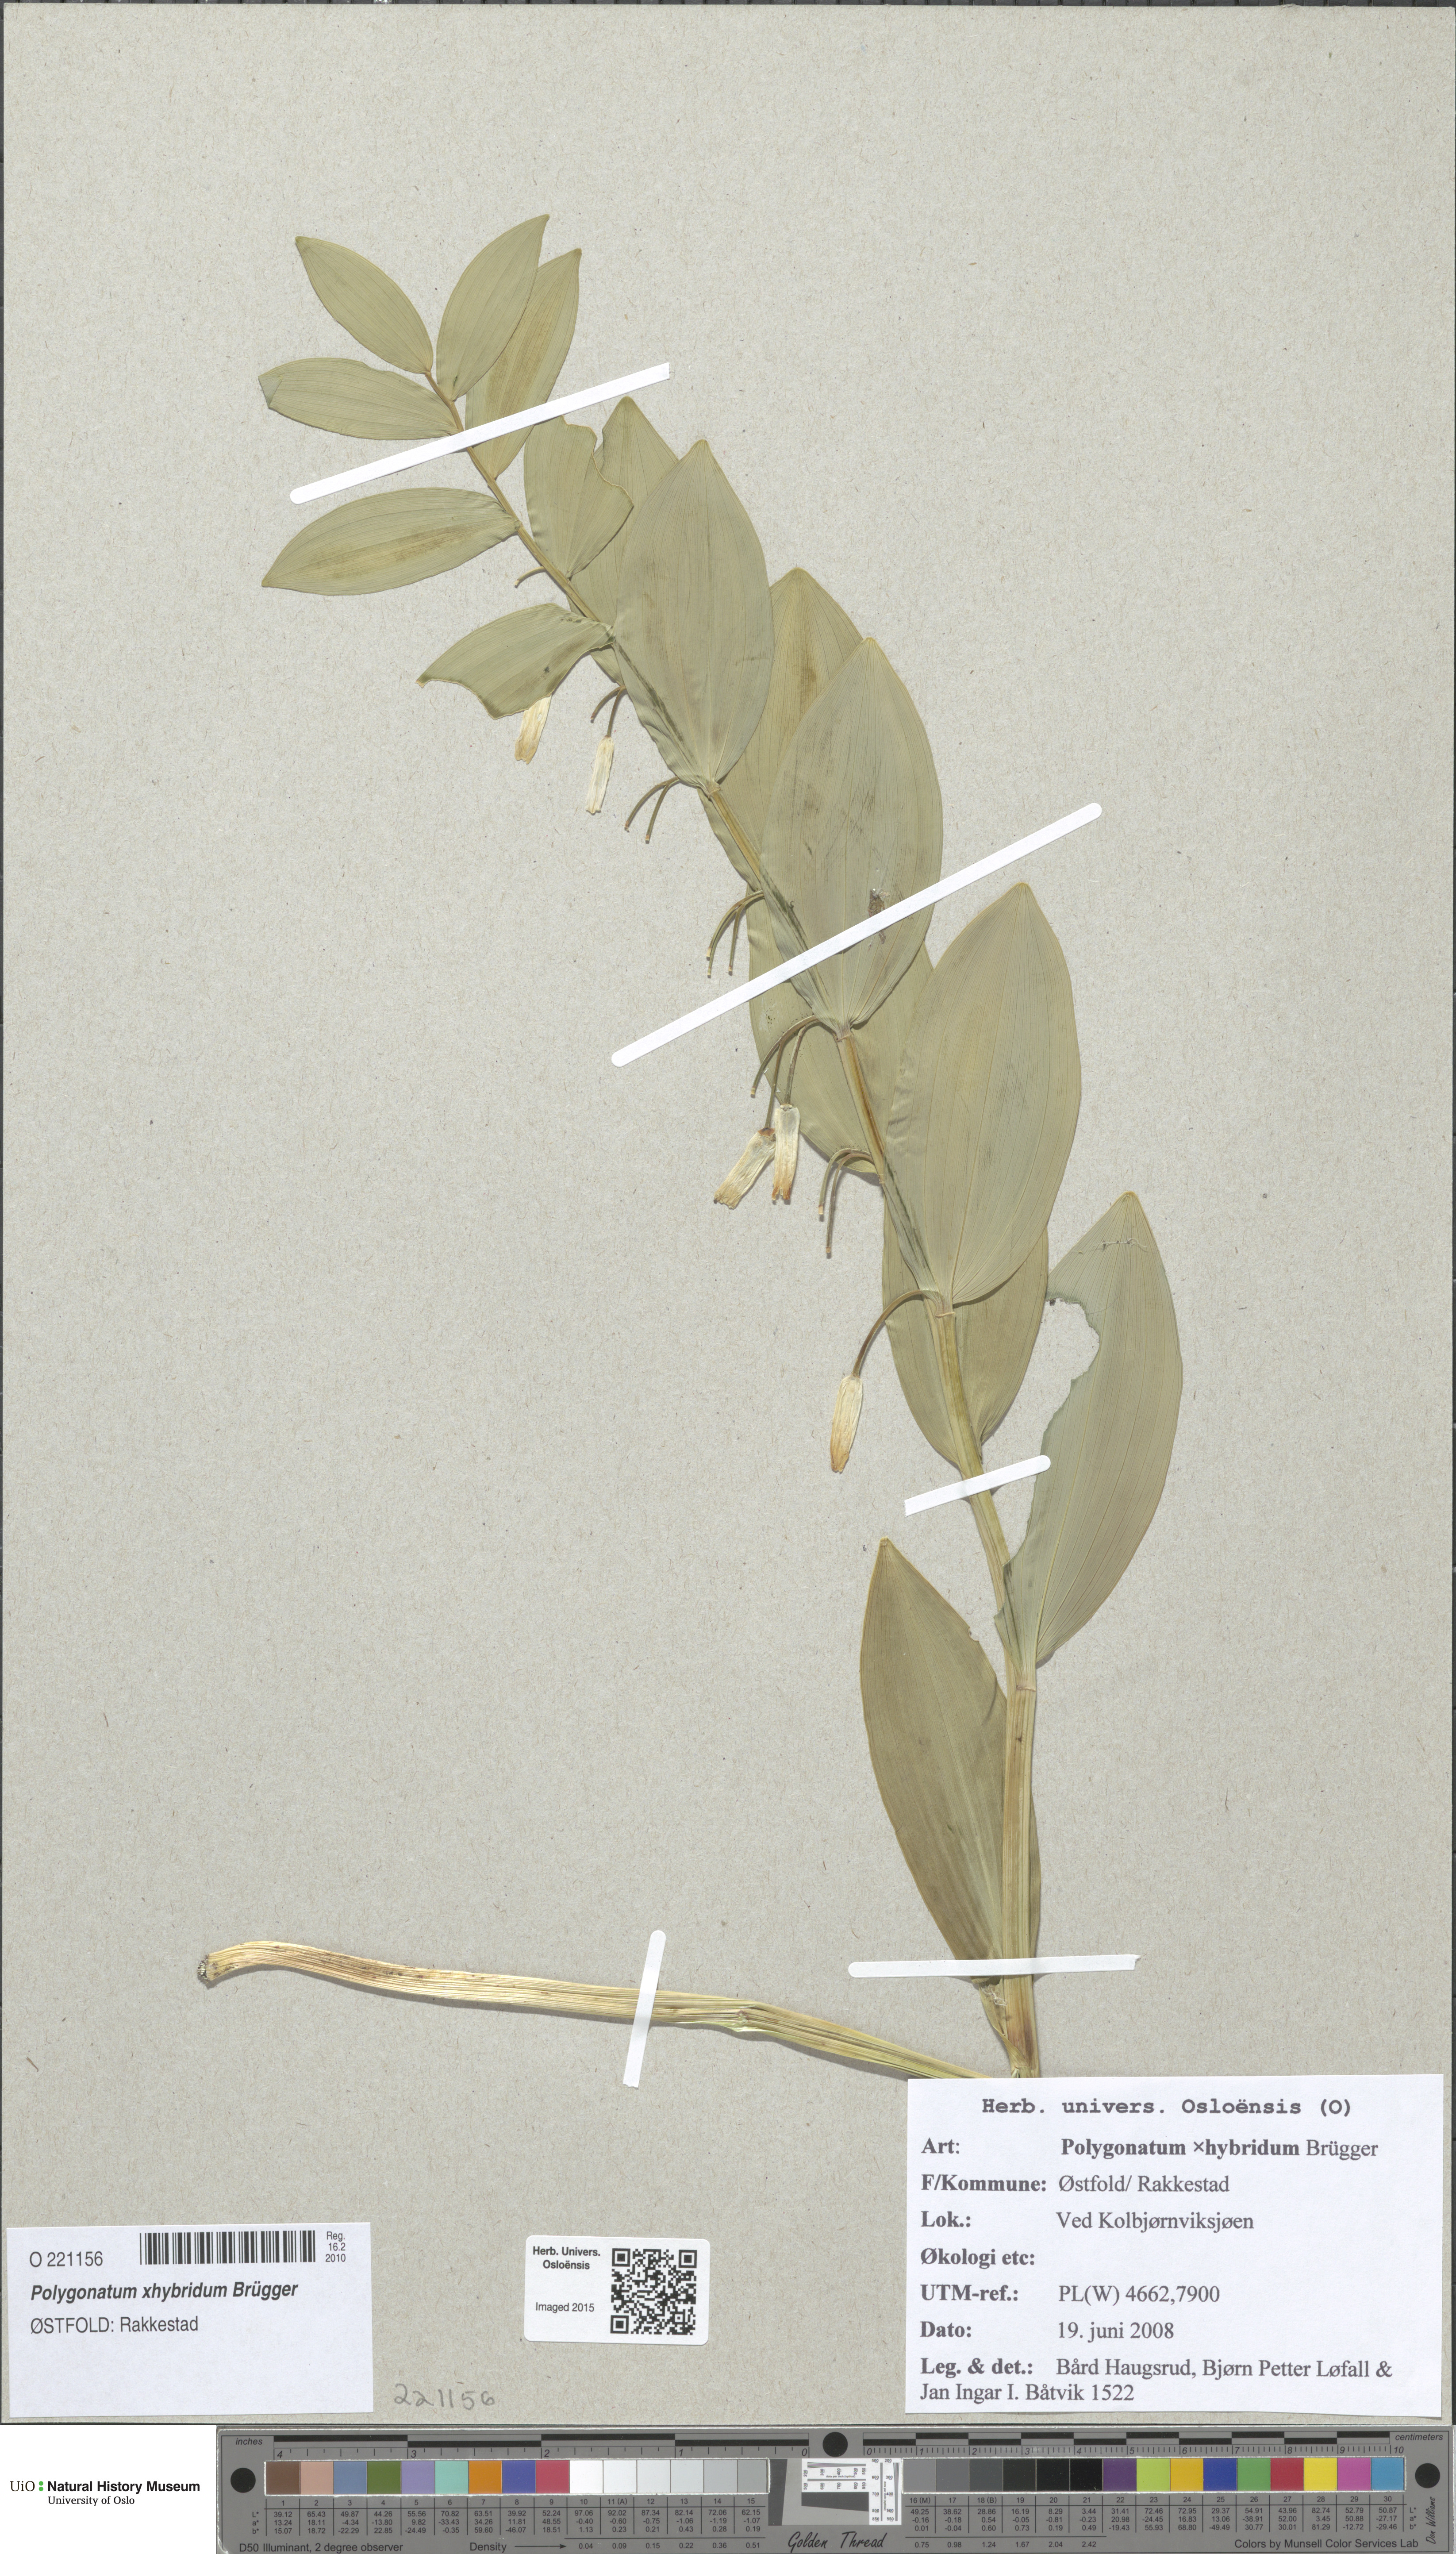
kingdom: Plantae
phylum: Tracheophyta
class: Liliopsida
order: Asparagales
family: Asparagaceae
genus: Polygonatum
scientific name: Polygonatum hybridum
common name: Garden solomon's-seal
